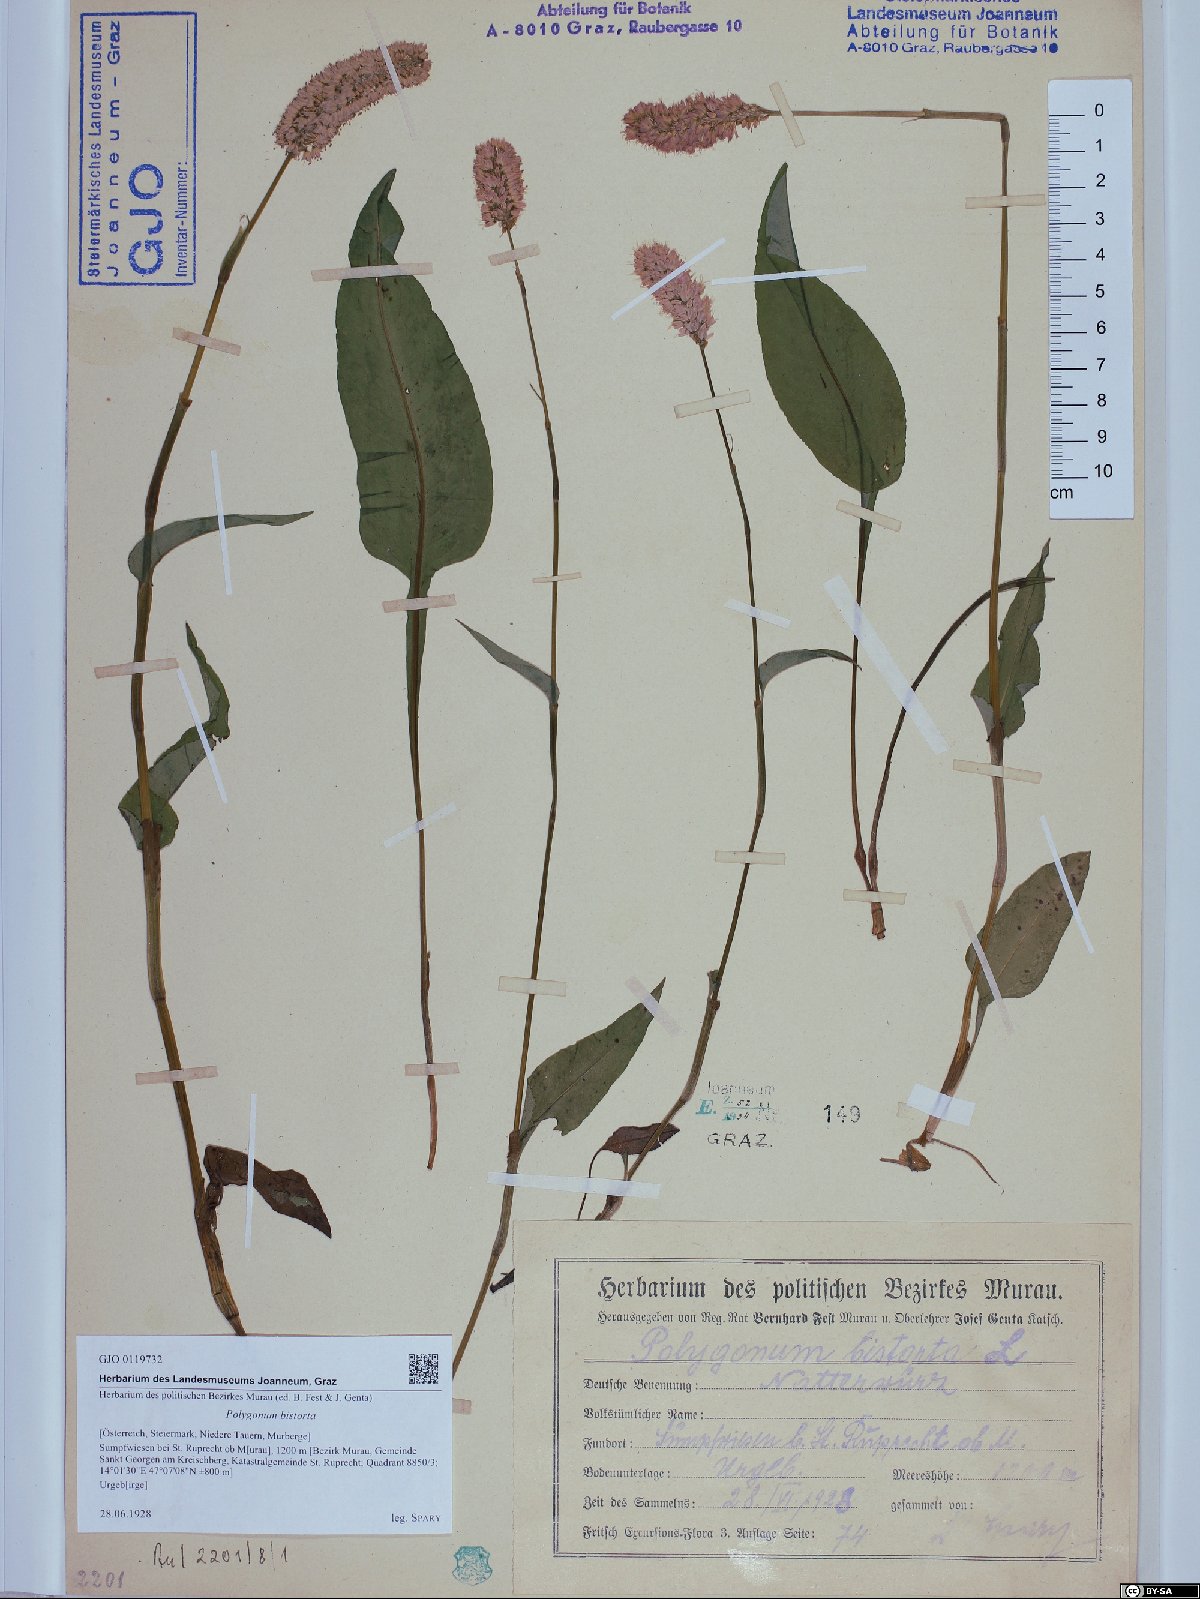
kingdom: Plantae
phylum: Tracheophyta
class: Magnoliopsida
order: Caryophyllales
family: Polygonaceae
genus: Bistorta
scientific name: Bistorta officinalis
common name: Common bistort
